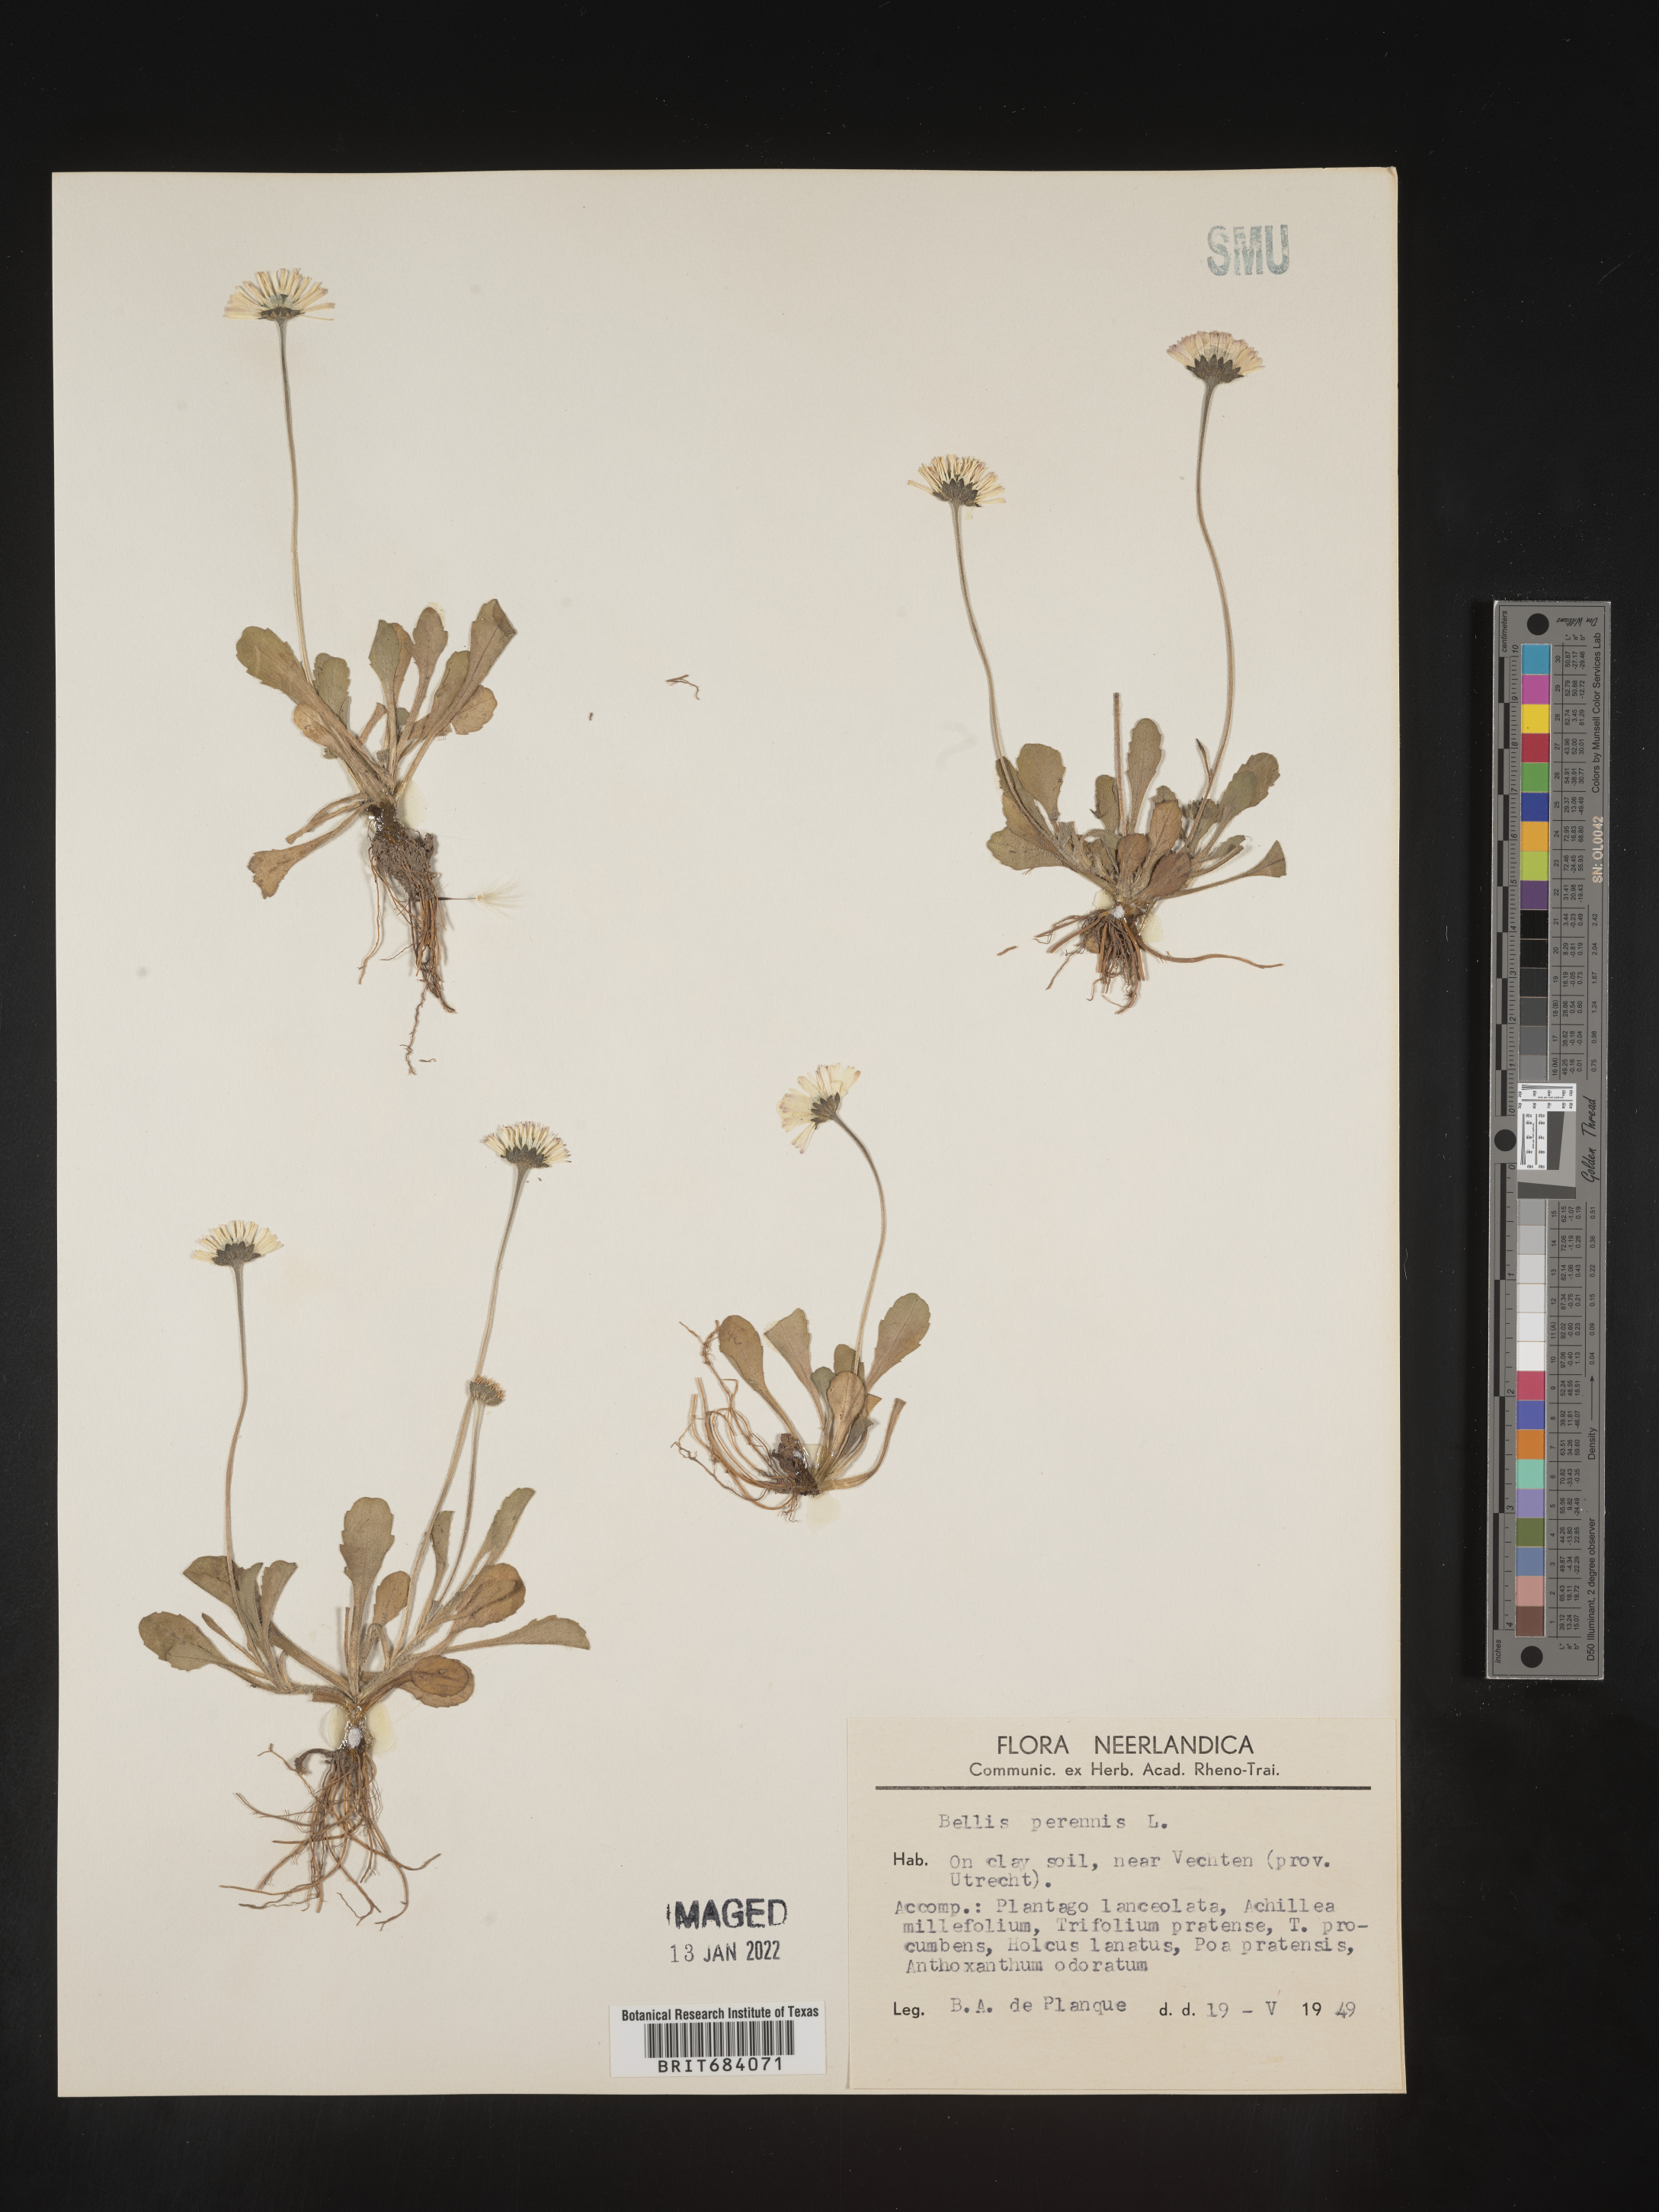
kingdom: Plantae
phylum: Tracheophyta
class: Magnoliopsida
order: Asterales
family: Asteraceae
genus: Bellis
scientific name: Bellis
